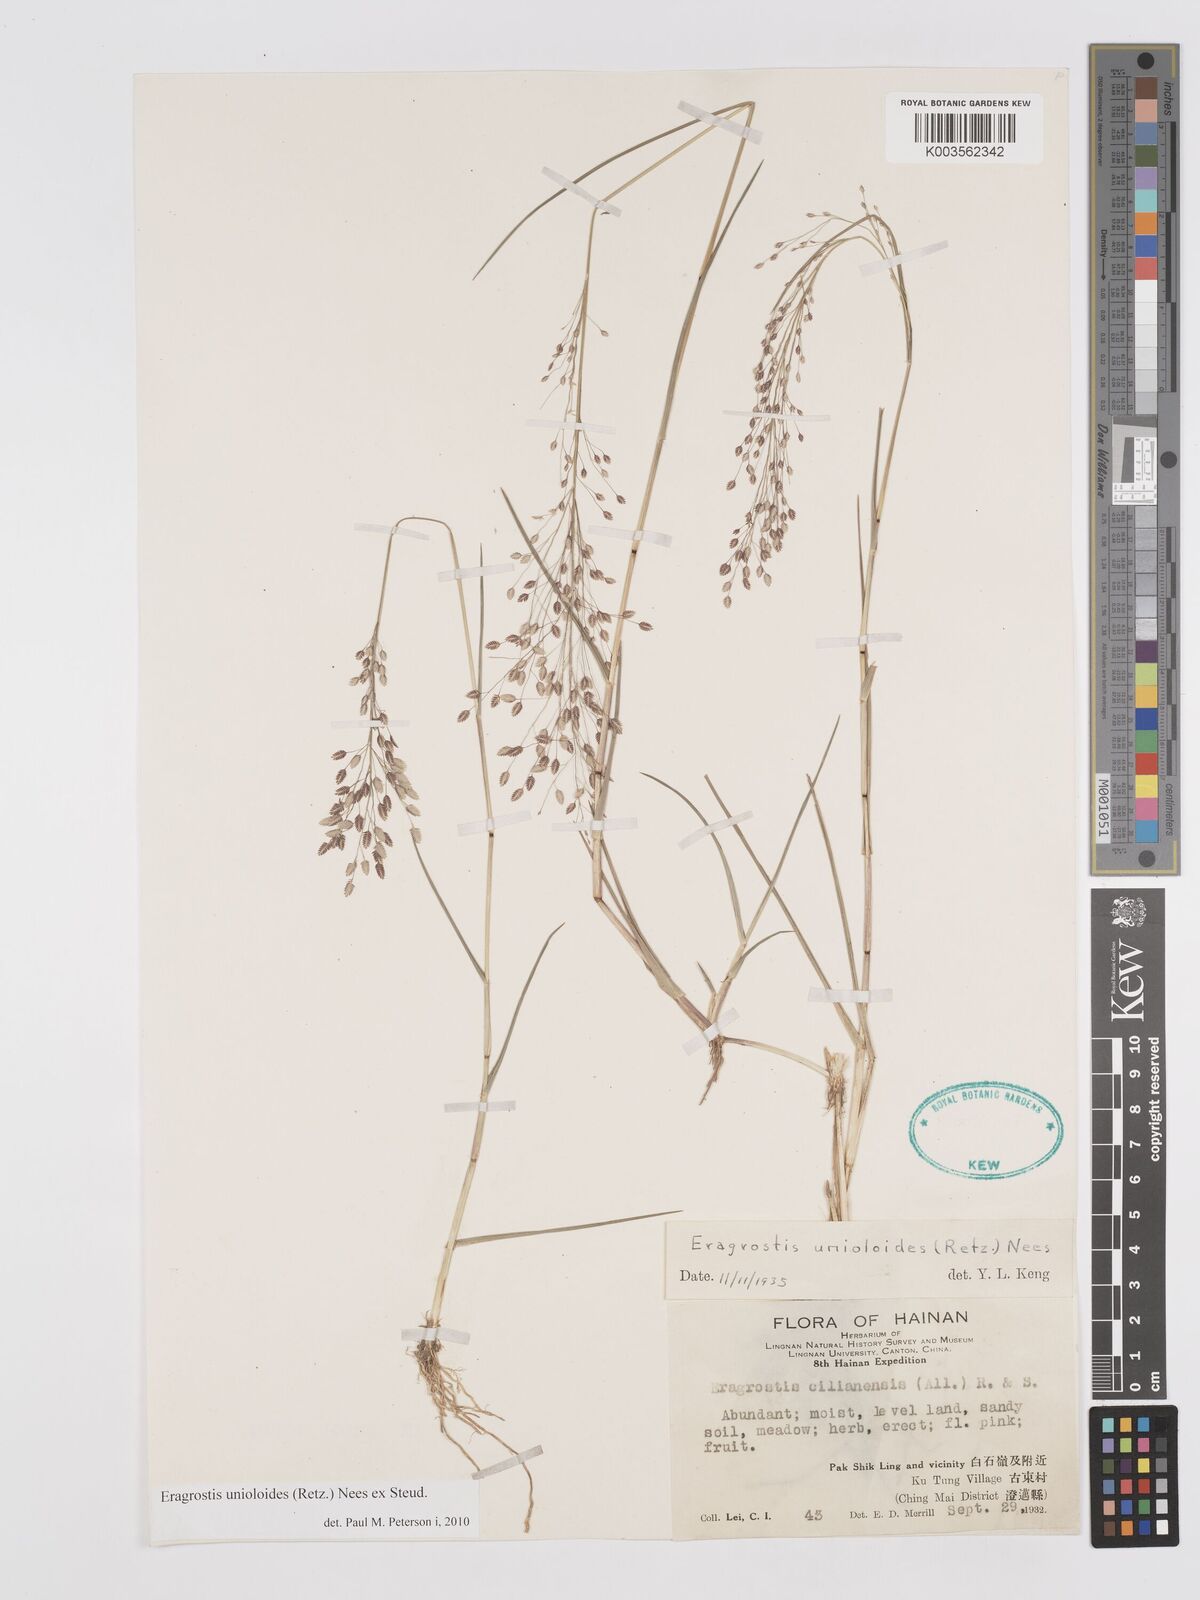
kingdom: Plantae
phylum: Tracheophyta
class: Liliopsida
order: Poales
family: Poaceae
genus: Eragrostis
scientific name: Eragrostis unioloides
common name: Chinese lovegrass
